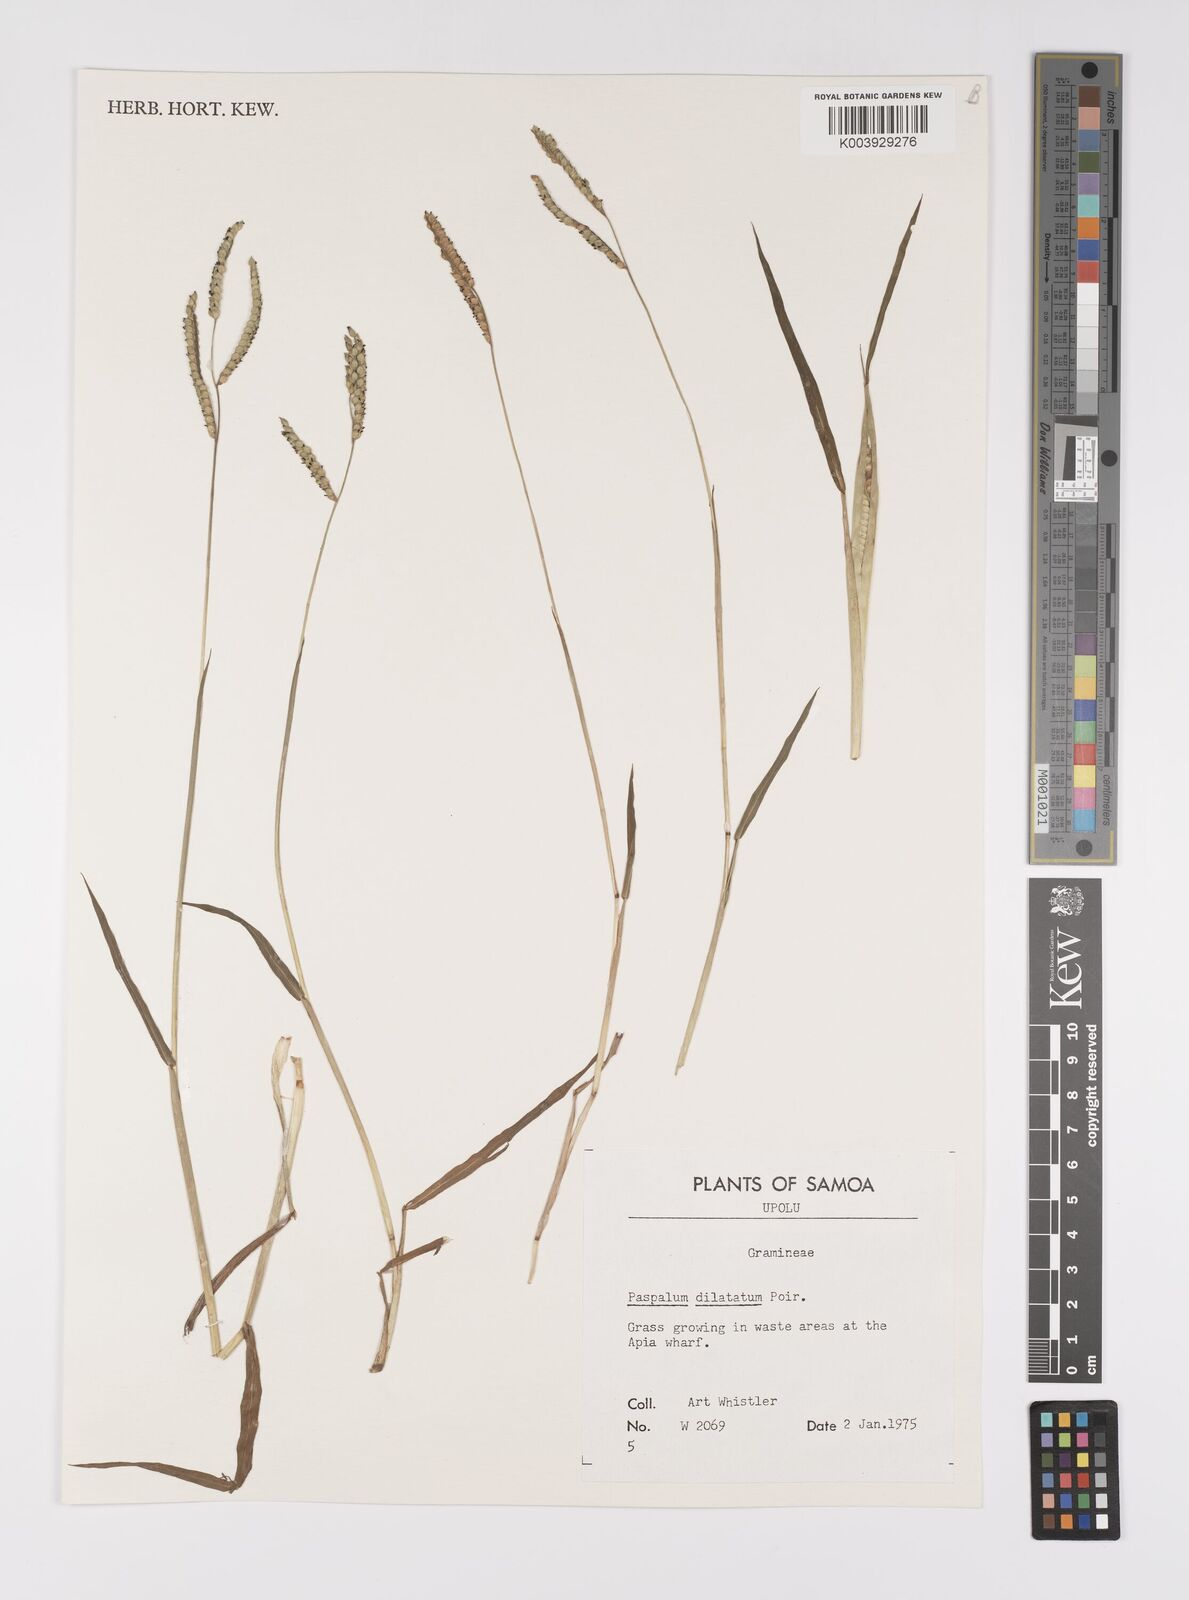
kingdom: Plantae
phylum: Tracheophyta
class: Liliopsida
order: Poales
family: Poaceae
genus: Paspalum
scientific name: Paspalum dilatatum
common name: Dallisgrass
